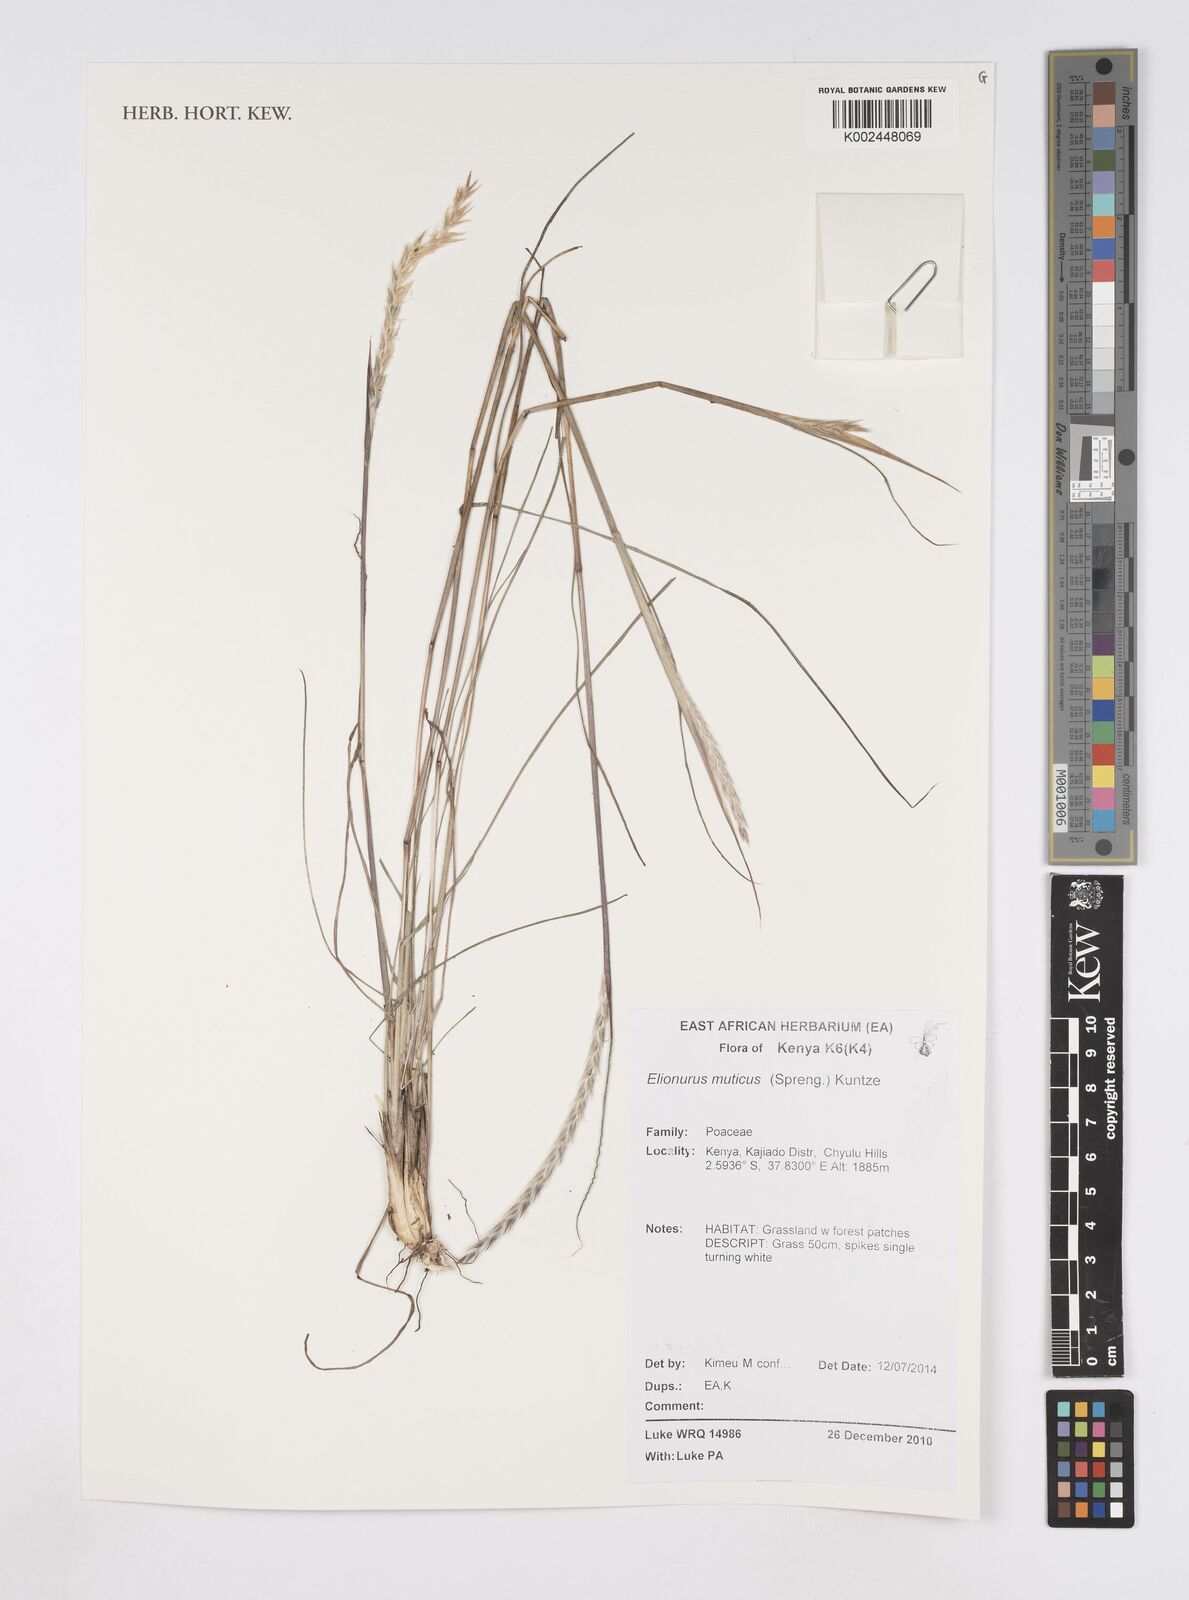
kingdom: Plantae
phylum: Tracheophyta
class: Liliopsida
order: Poales
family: Poaceae
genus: Elionurus
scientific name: Elionurus muticus
